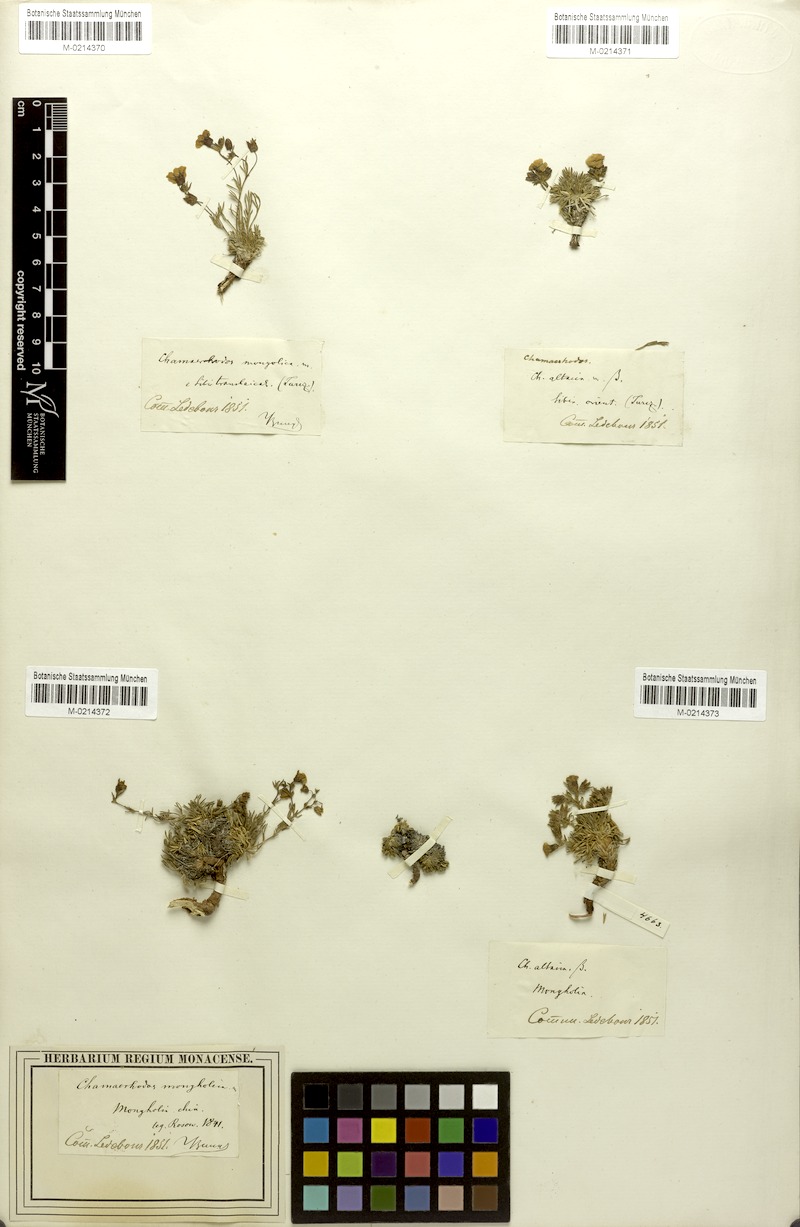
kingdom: Plantae
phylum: Tracheophyta
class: Magnoliopsida
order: Rosales
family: Rosaceae
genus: Chamaerhodos
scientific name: Chamaerhodos altaica
